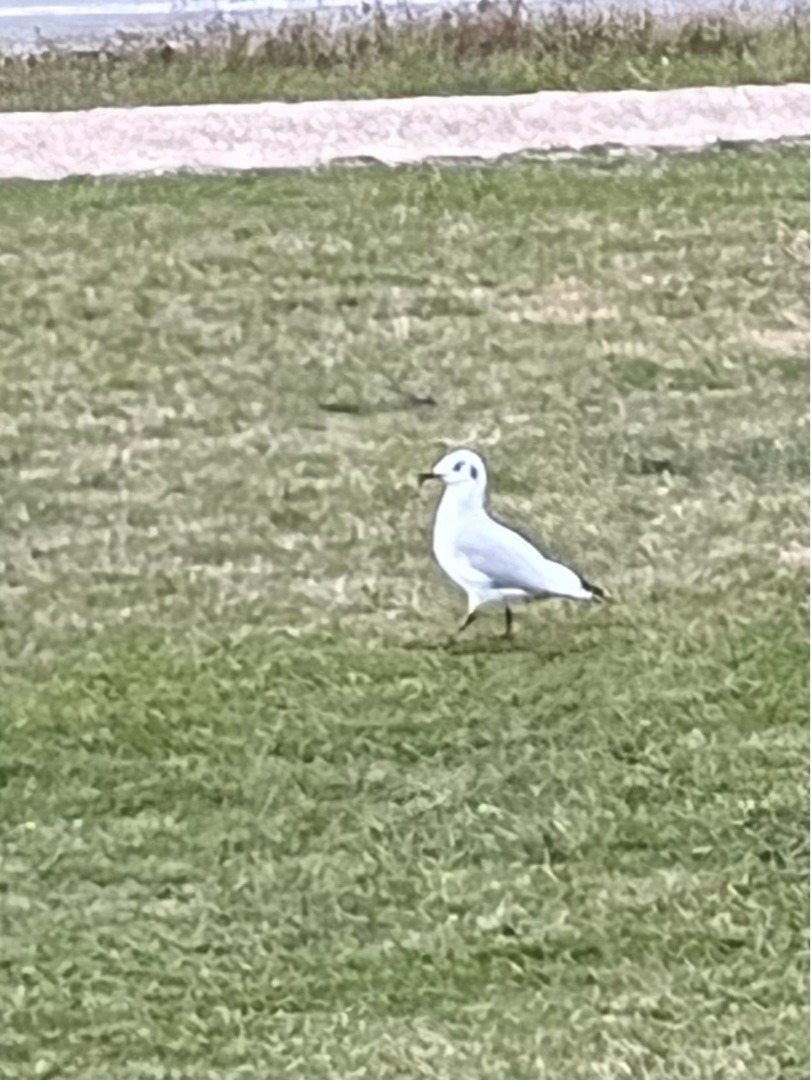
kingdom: Animalia
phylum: Chordata
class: Aves
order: Charadriiformes
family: Laridae
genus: Chroicocephalus
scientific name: Chroicocephalus ridibundus
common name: Hættemåge
